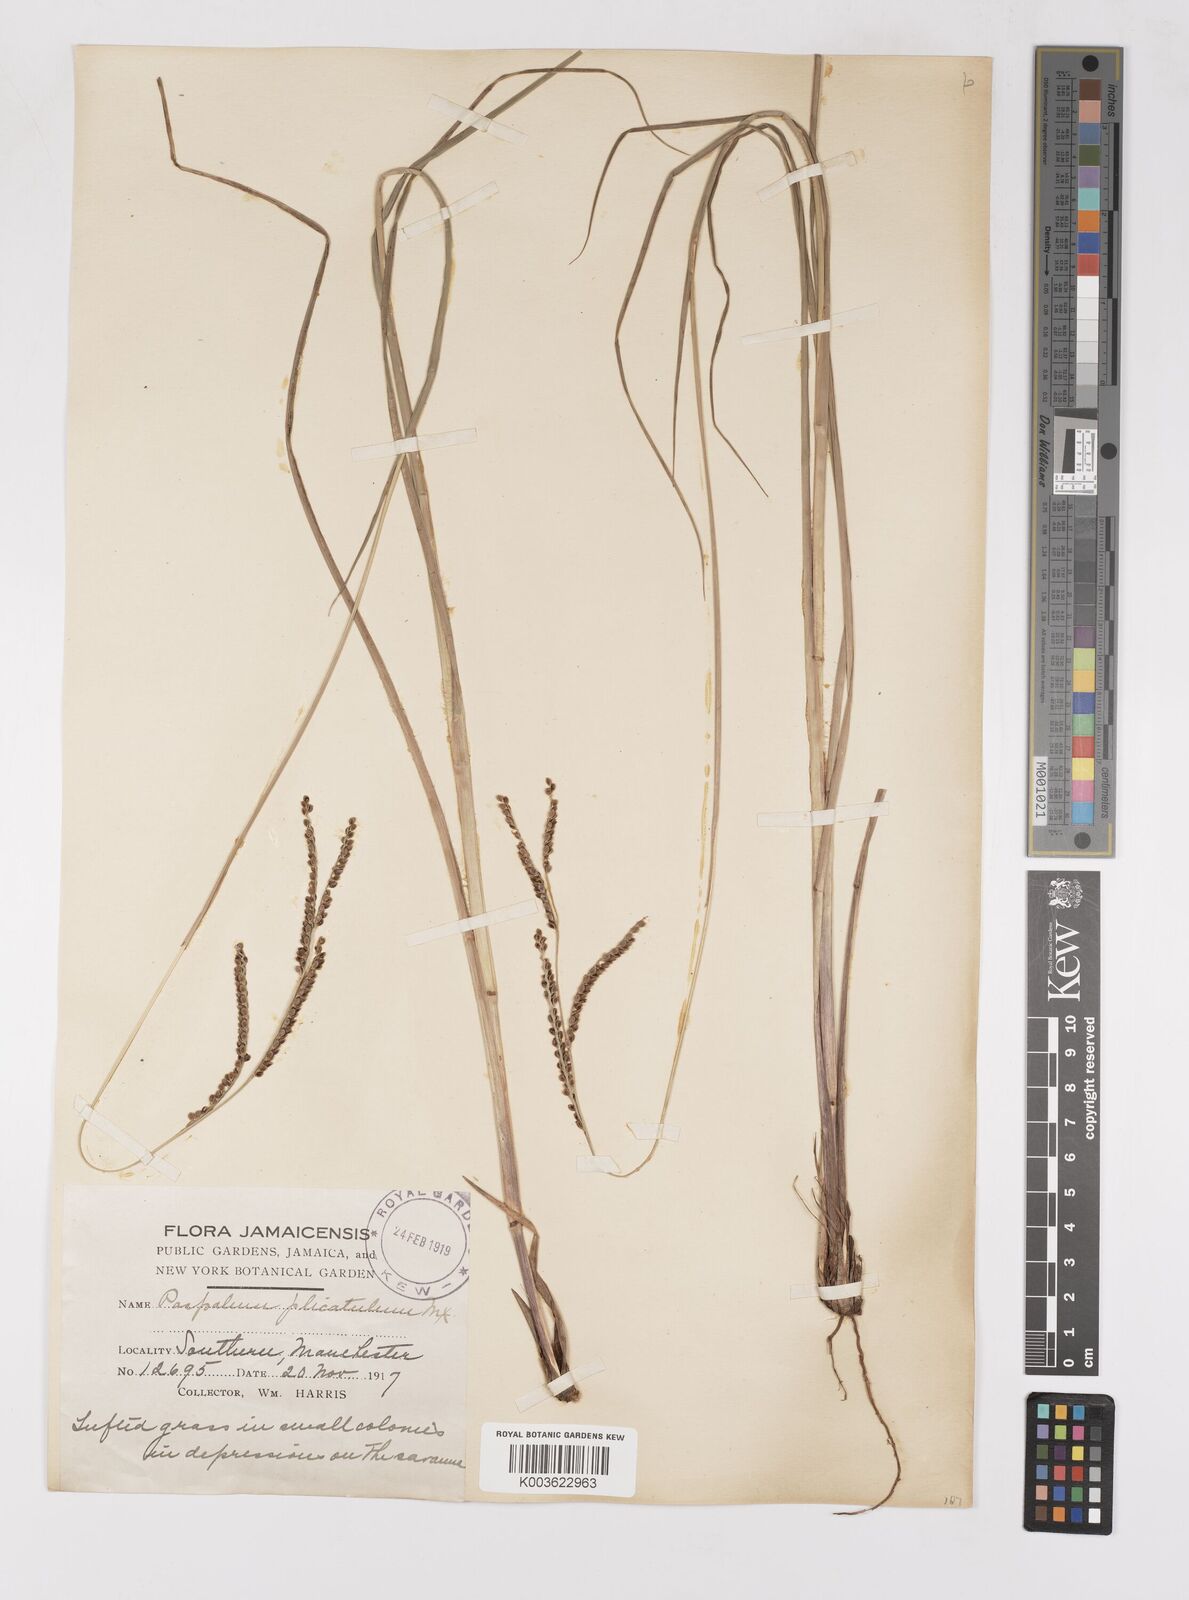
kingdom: Plantae
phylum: Tracheophyta
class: Liliopsida
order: Poales
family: Poaceae
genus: Paspalum
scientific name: Paspalum
